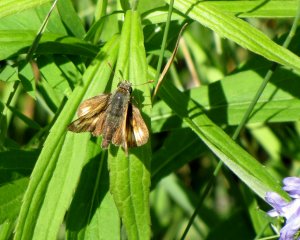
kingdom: Animalia
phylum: Arthropoda
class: Insecta
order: Lepidoptera
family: Hesperiidae
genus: Polites
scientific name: Polites
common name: Long Dash Skipper
